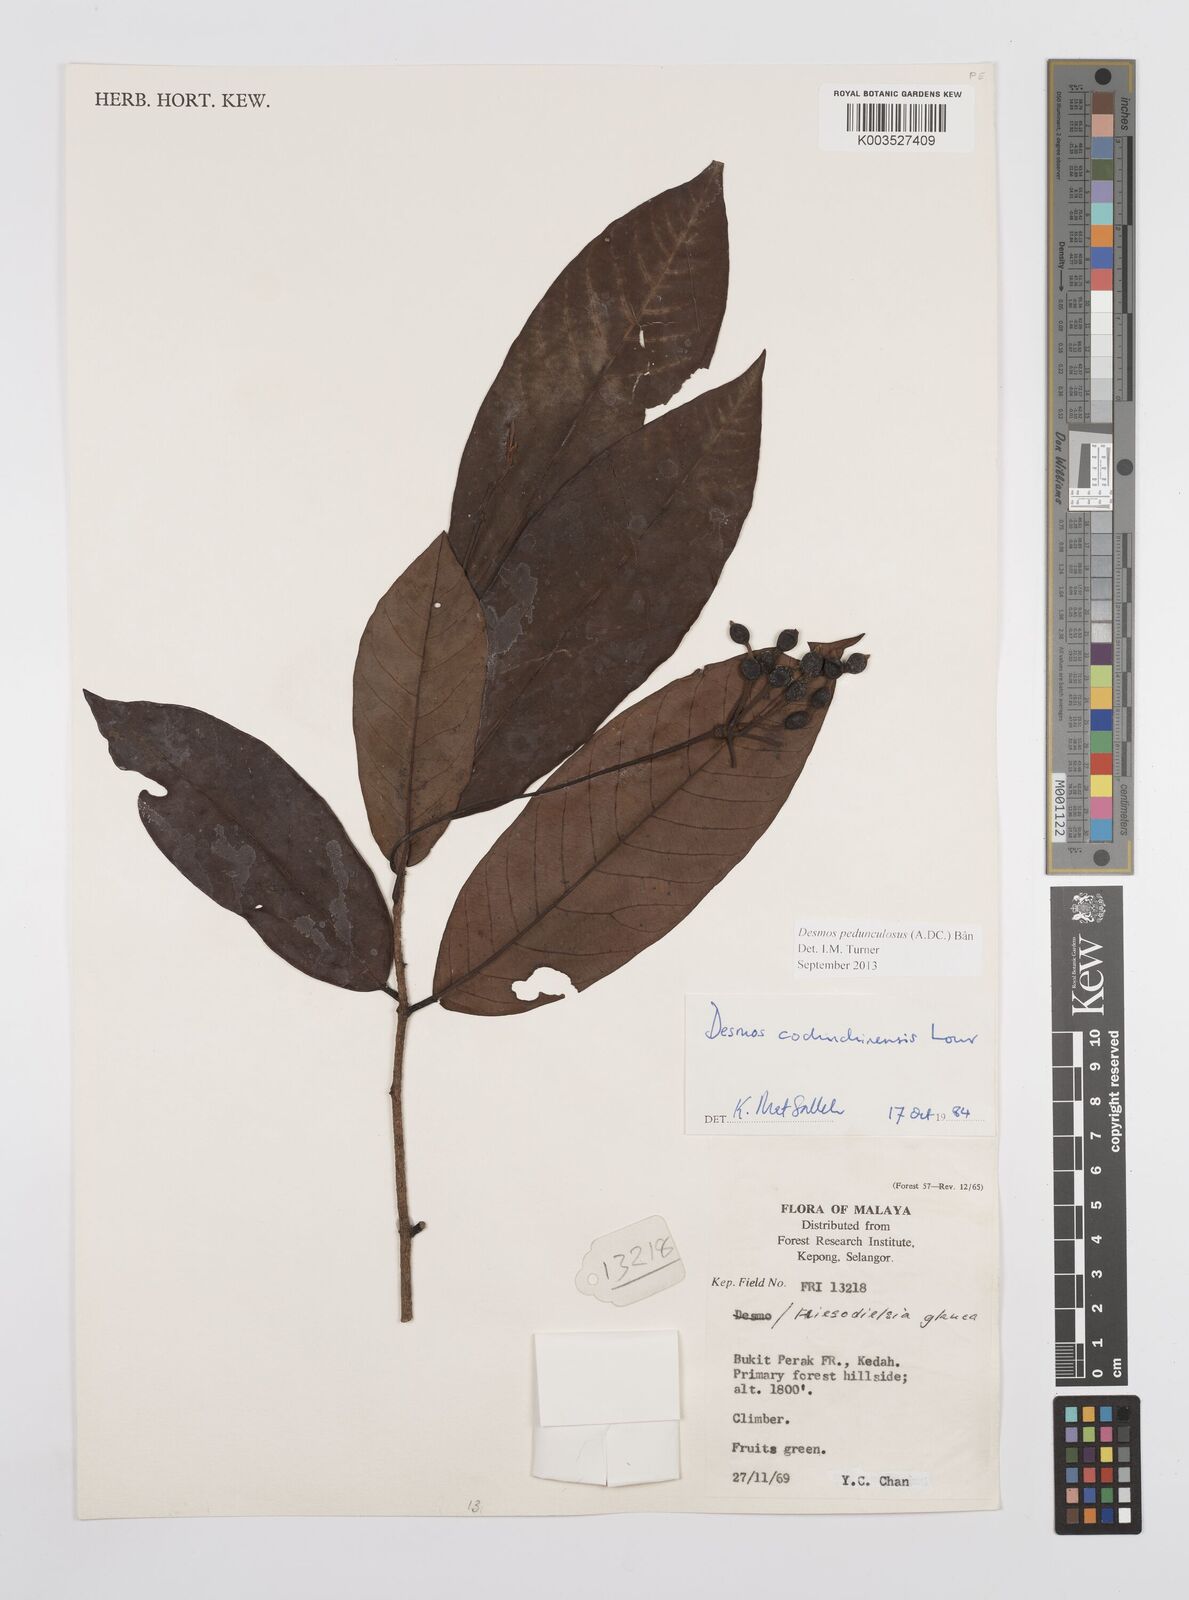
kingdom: Plantae
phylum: Tracheophyta
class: Magnoliopsida
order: Magnoliales
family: Annonaceae
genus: Desmos
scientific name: Desmos cochinchinensis
